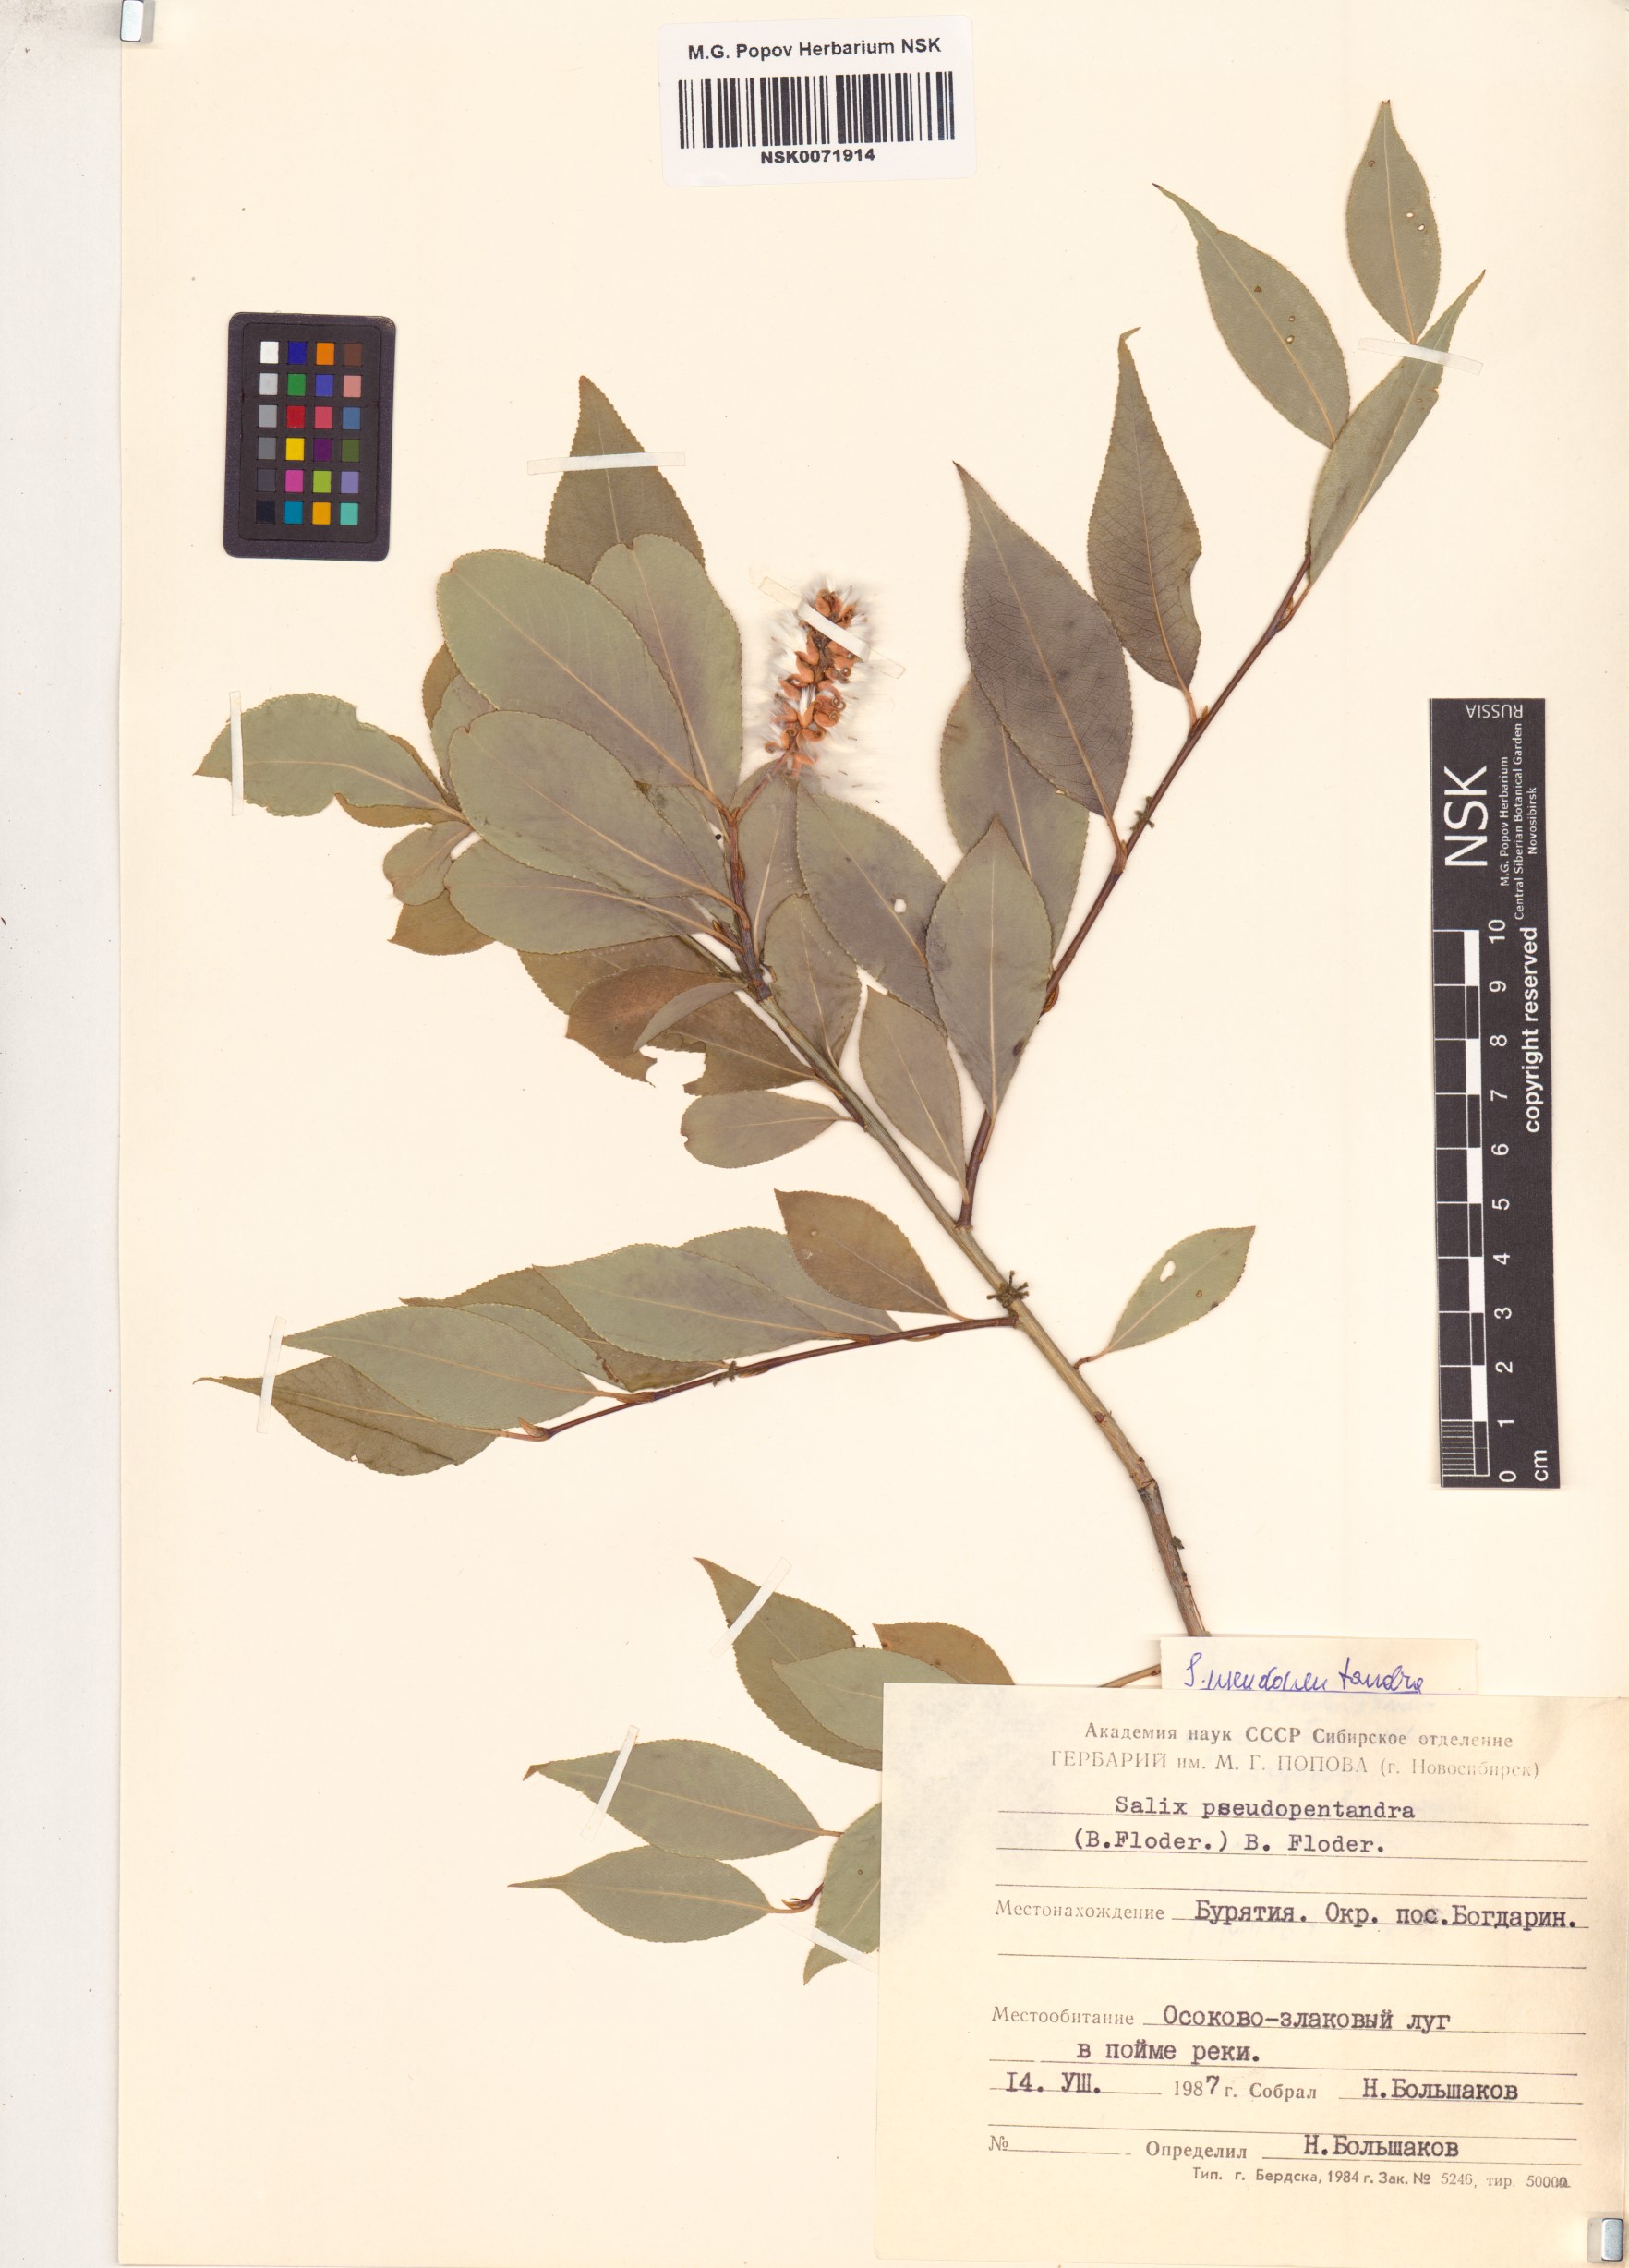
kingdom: Plantae
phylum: Tracheophyta
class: Magnoliopsida
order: Malpighiales
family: Salicaceae
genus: Salix
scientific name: Salix pseudopentandra
